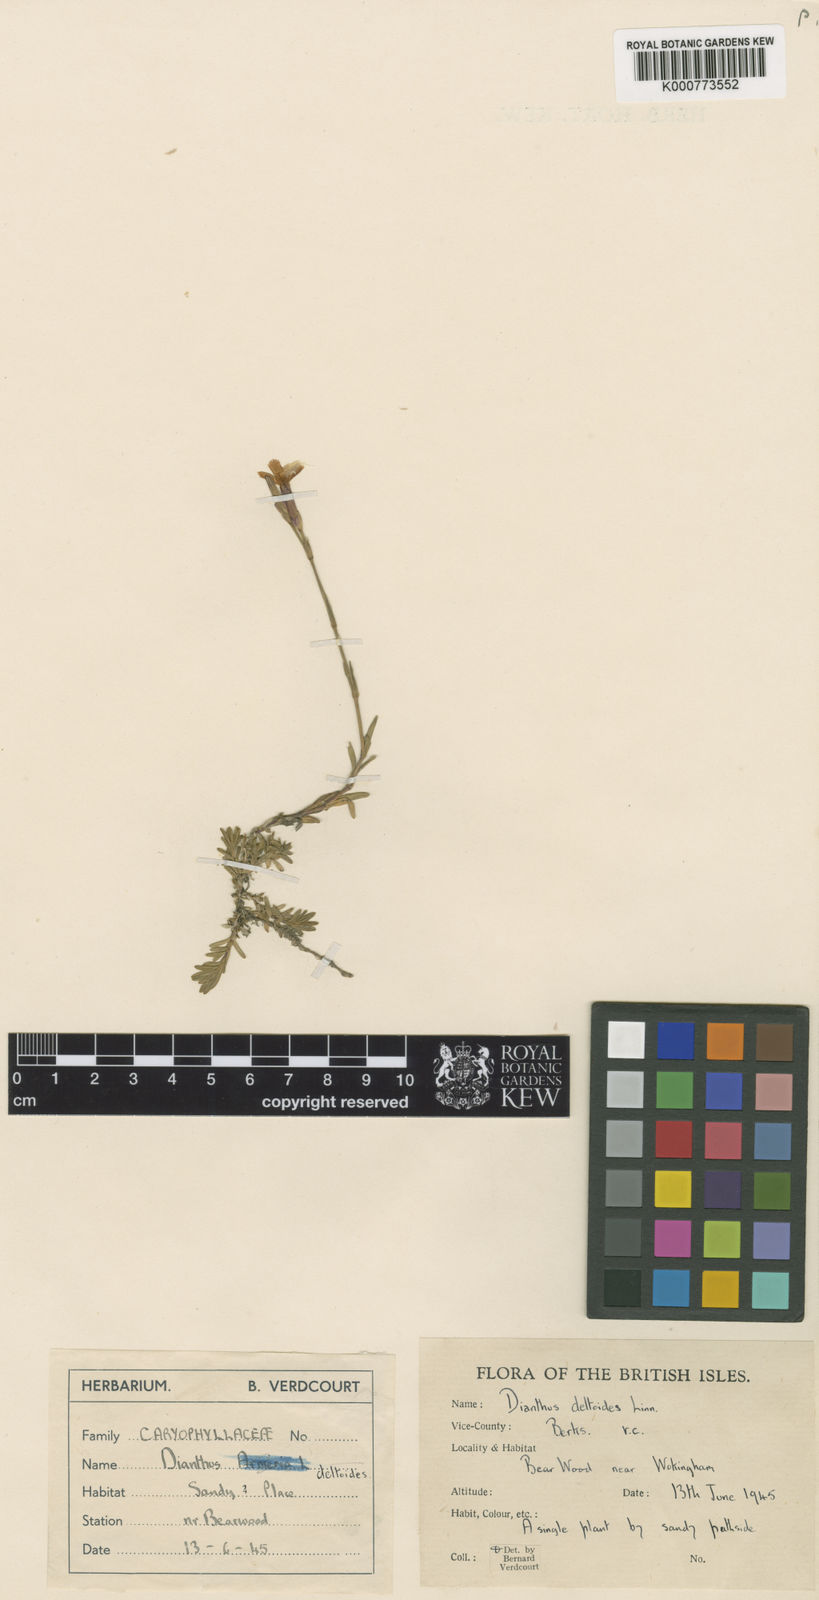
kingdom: Plantae
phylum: Tracheophyta
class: Magnoliopsida
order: Caryophyllales
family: Caryophyllaceae
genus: Dianthus
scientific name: Dianthus deltoides
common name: Maiden pink
